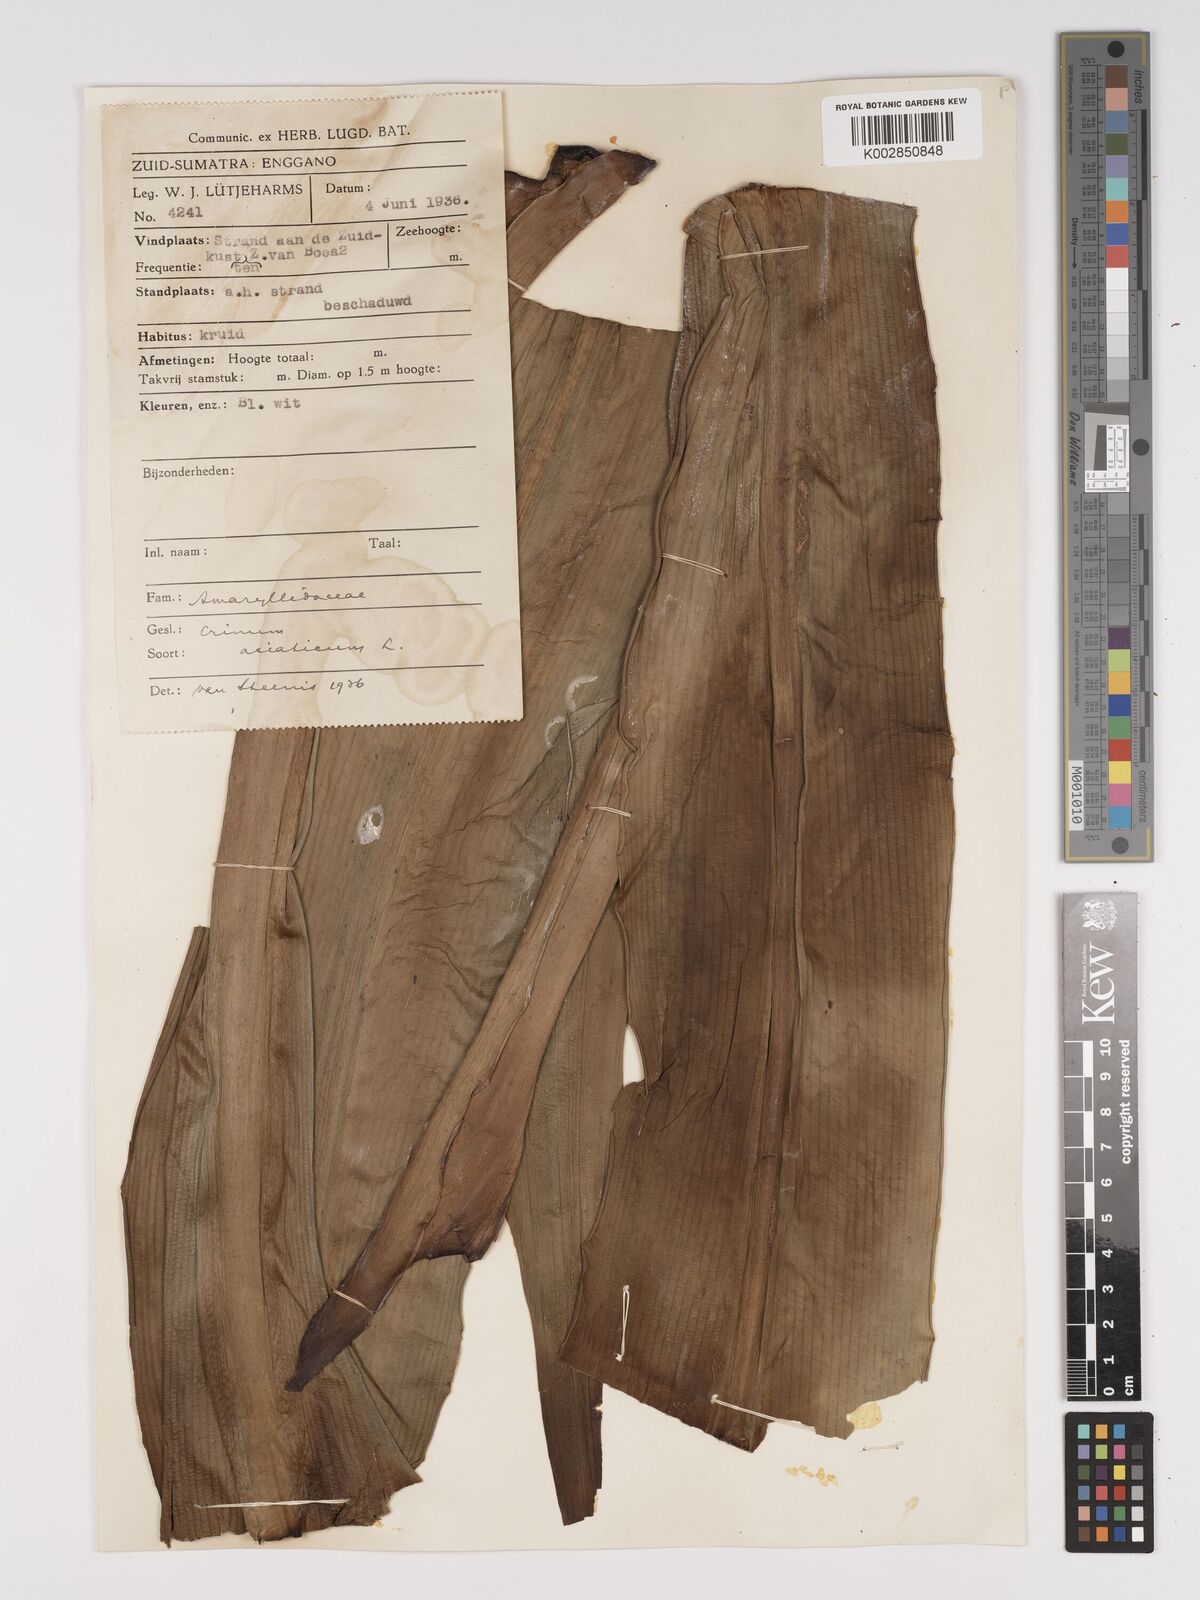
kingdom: Plantae
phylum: Tracheophyta
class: Liliopsida
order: Asparagales
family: Amaryllidaceae
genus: Crinum
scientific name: Crinum asiaticum
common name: Poisonbulb
